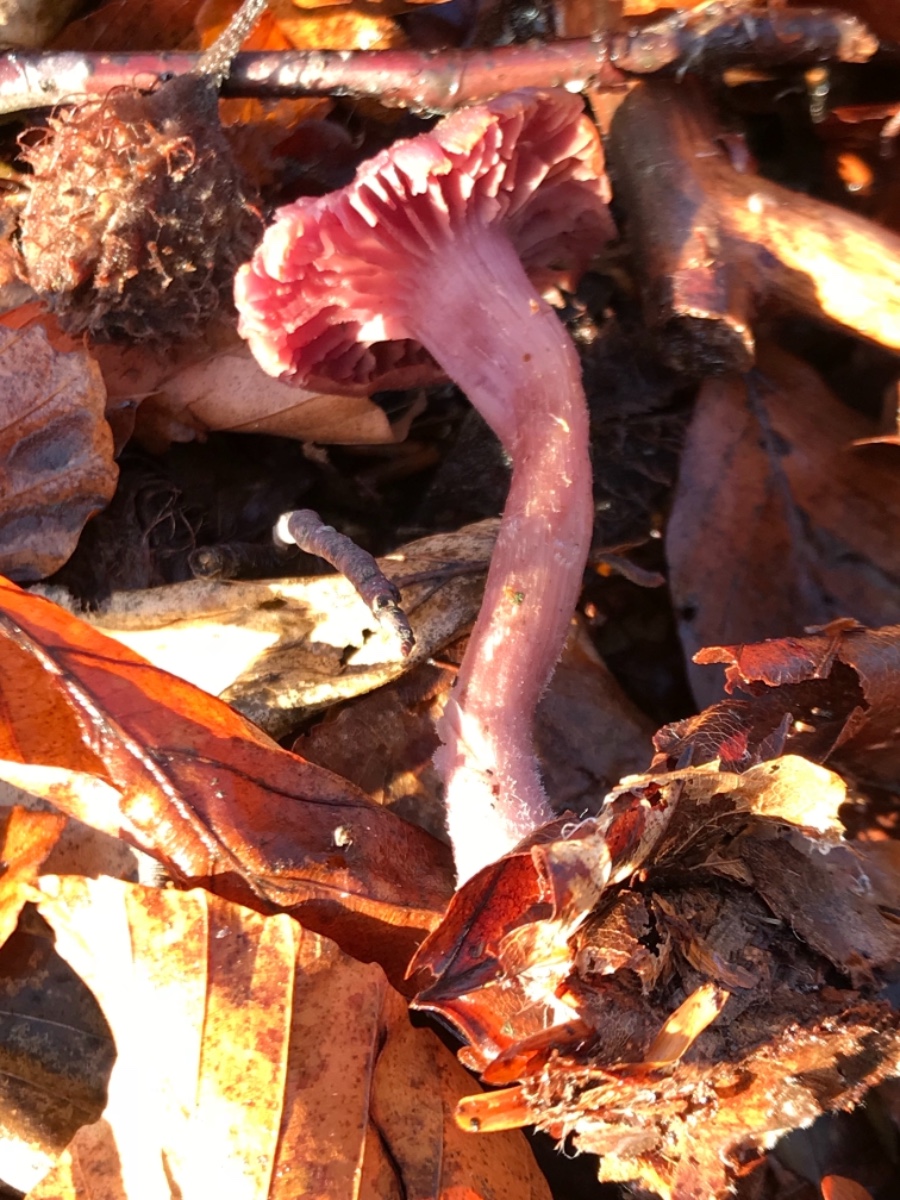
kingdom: Fungi
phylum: Basidiomycota
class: Agaricomycetes
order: Agaricales
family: Hydnangiaceae
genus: Laccaria
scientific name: Laccaria amethystina
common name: violet ametysthat
